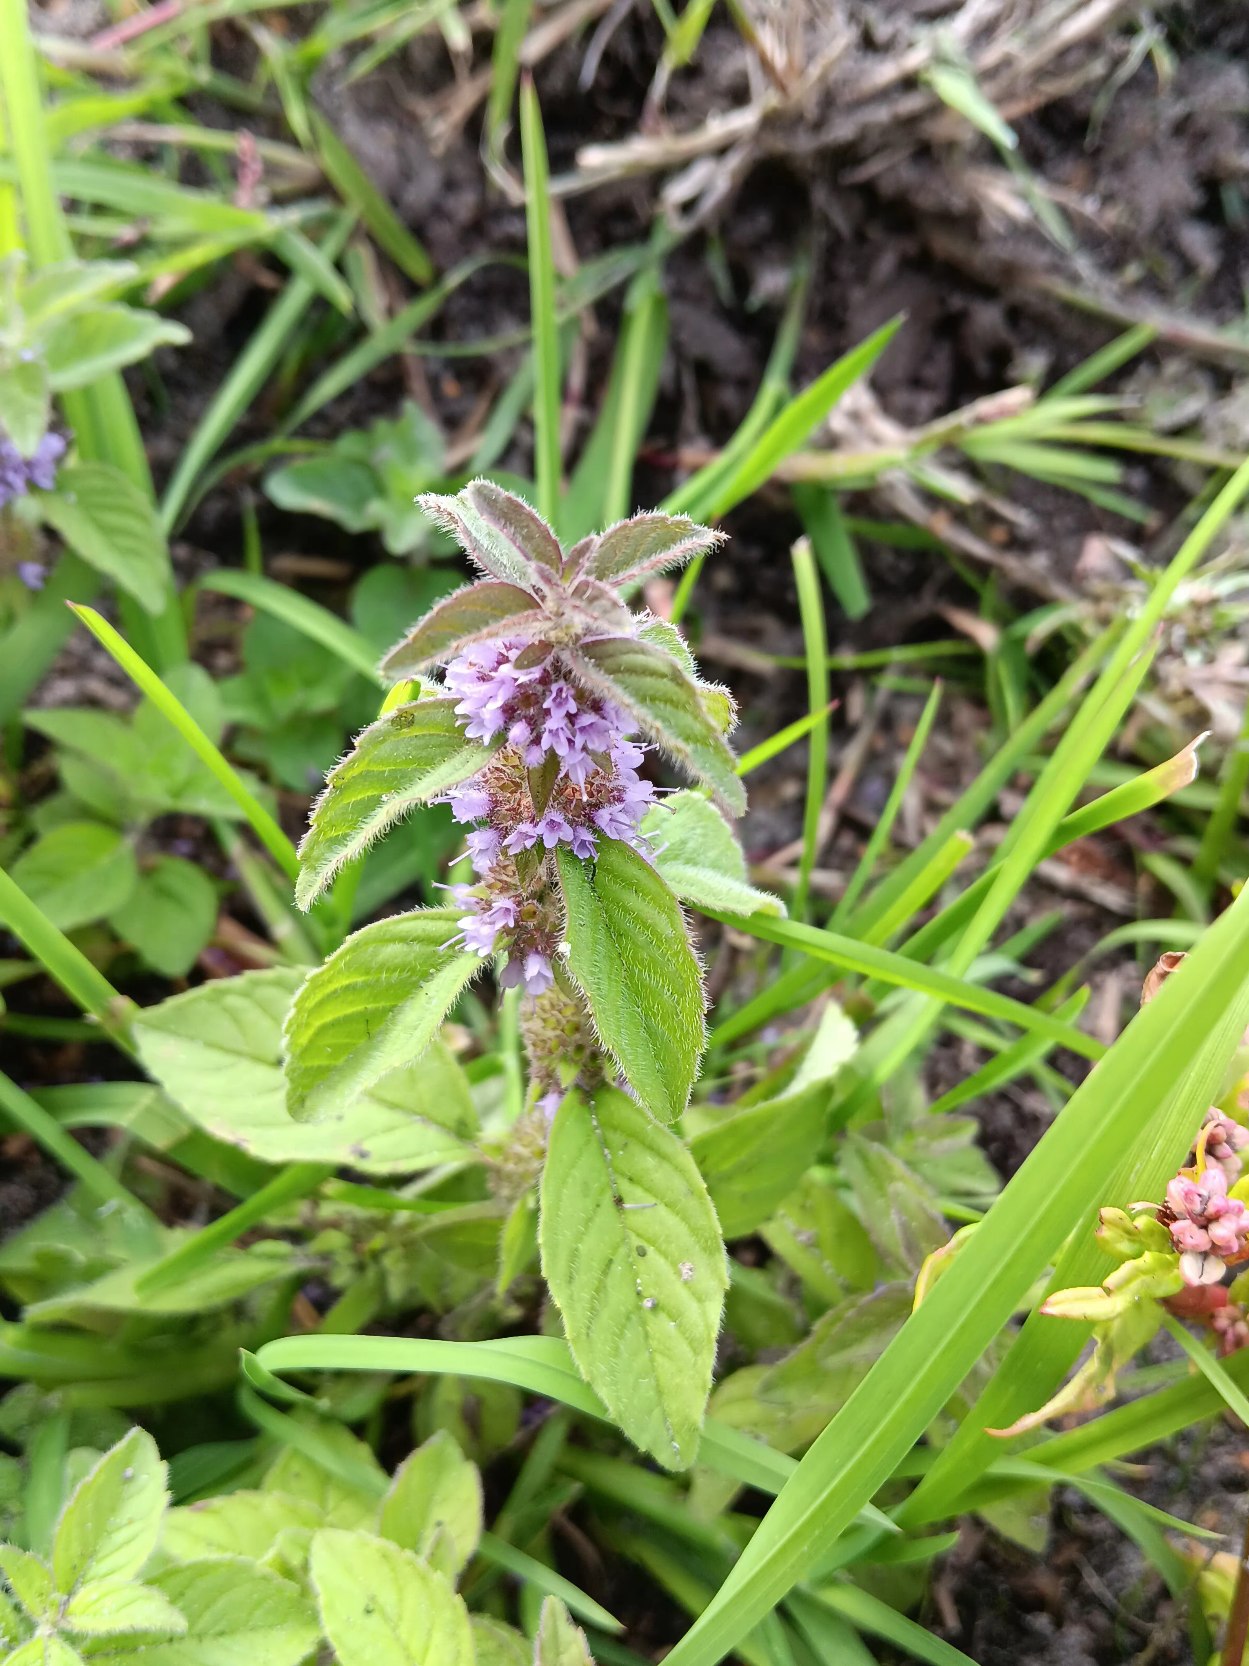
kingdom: Plantae
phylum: Tracheophyta
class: Magnoliopsida
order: Lamiales
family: Lamiaceae
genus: Mentha
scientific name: Mentha arvensis
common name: Ager-mynte
